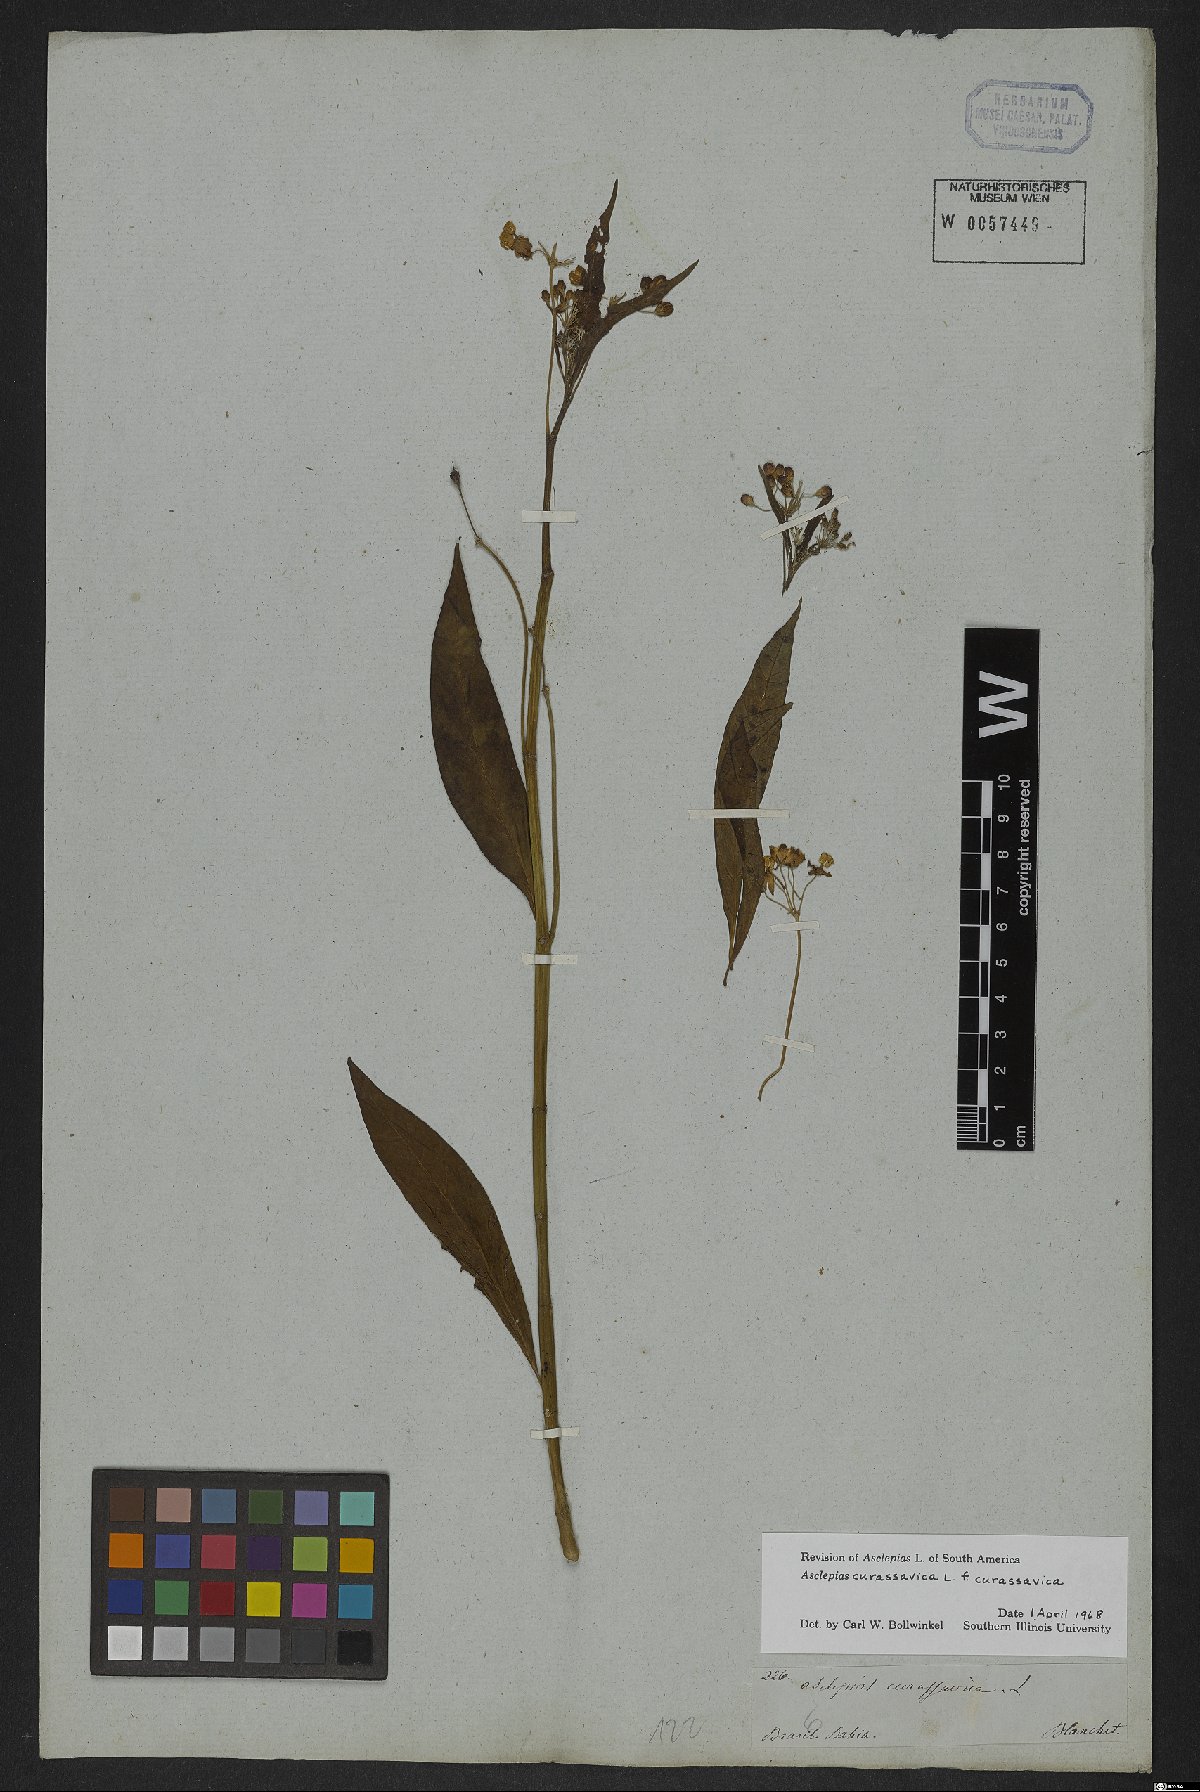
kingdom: Plantae
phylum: Tracheophyta
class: Magnoliopsida
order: Gentianales
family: Apocynaceae
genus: Asclepias
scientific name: Asclepias curassavica
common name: Bloodflower
